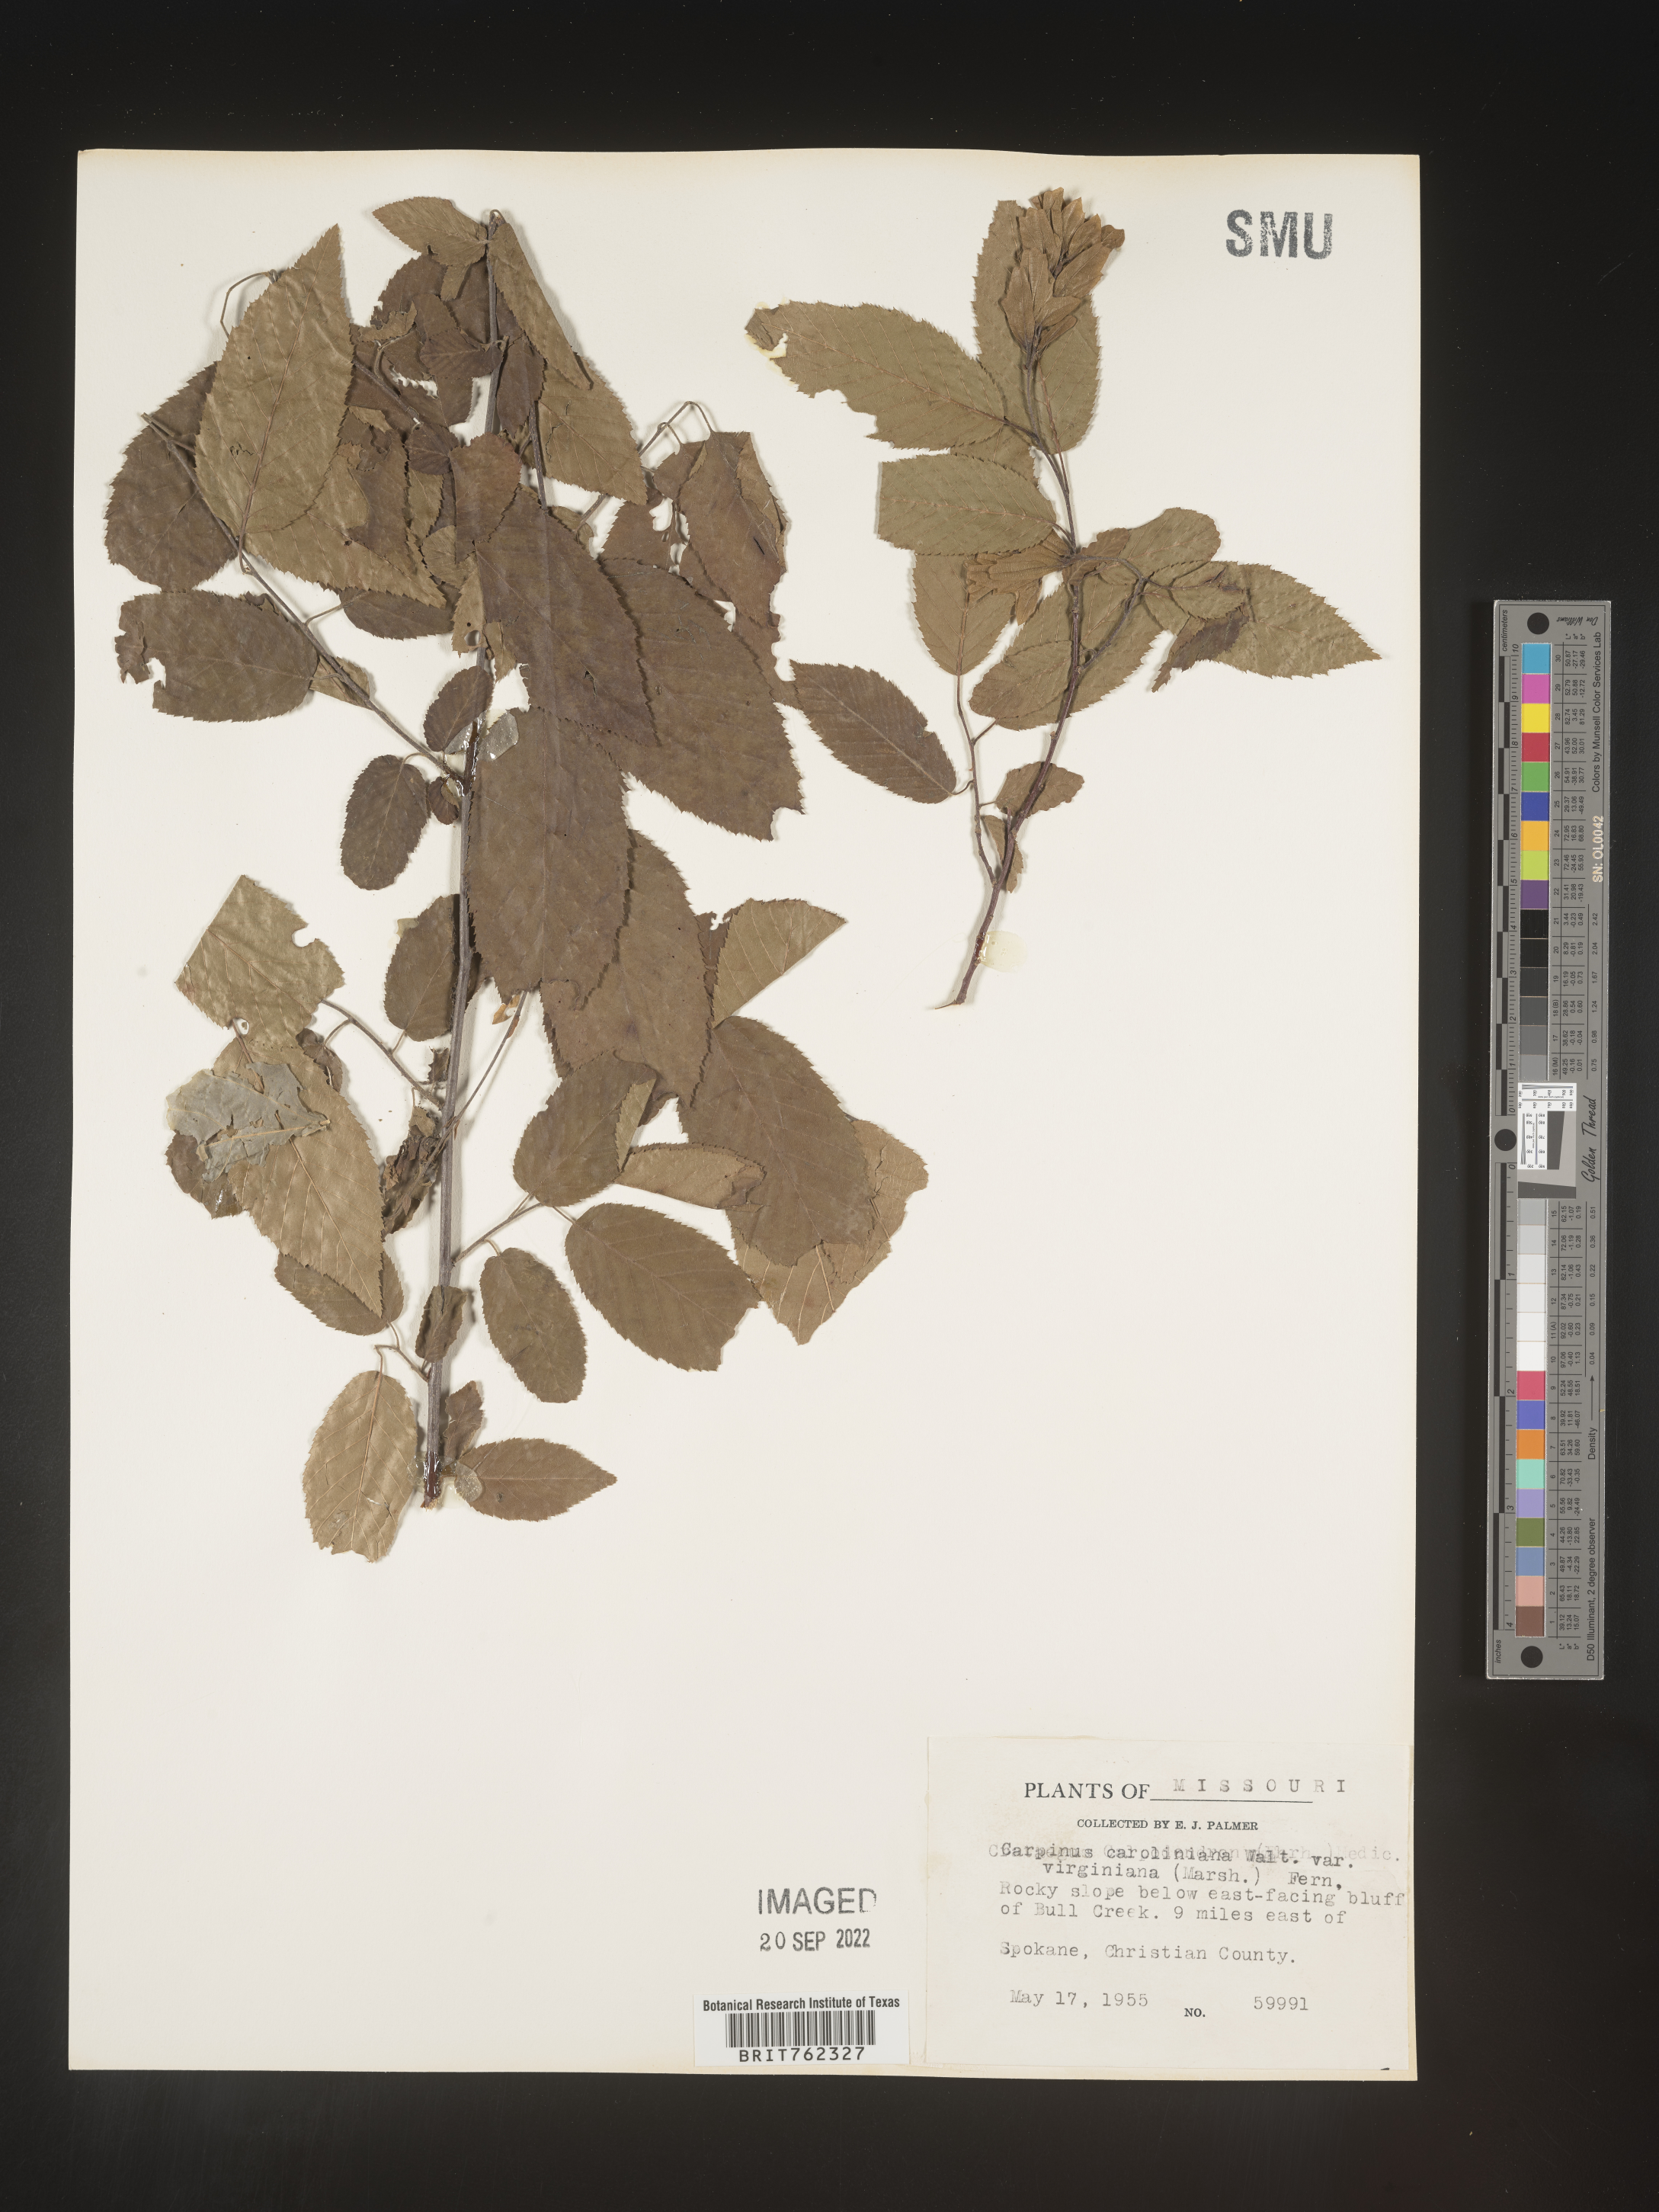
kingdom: Plantae
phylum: Tracheophyta
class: Magnoliopsida
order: Fagales
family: Betulaceae
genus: Carpinus
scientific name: Carpinus caroliniana
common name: American hornbeam
